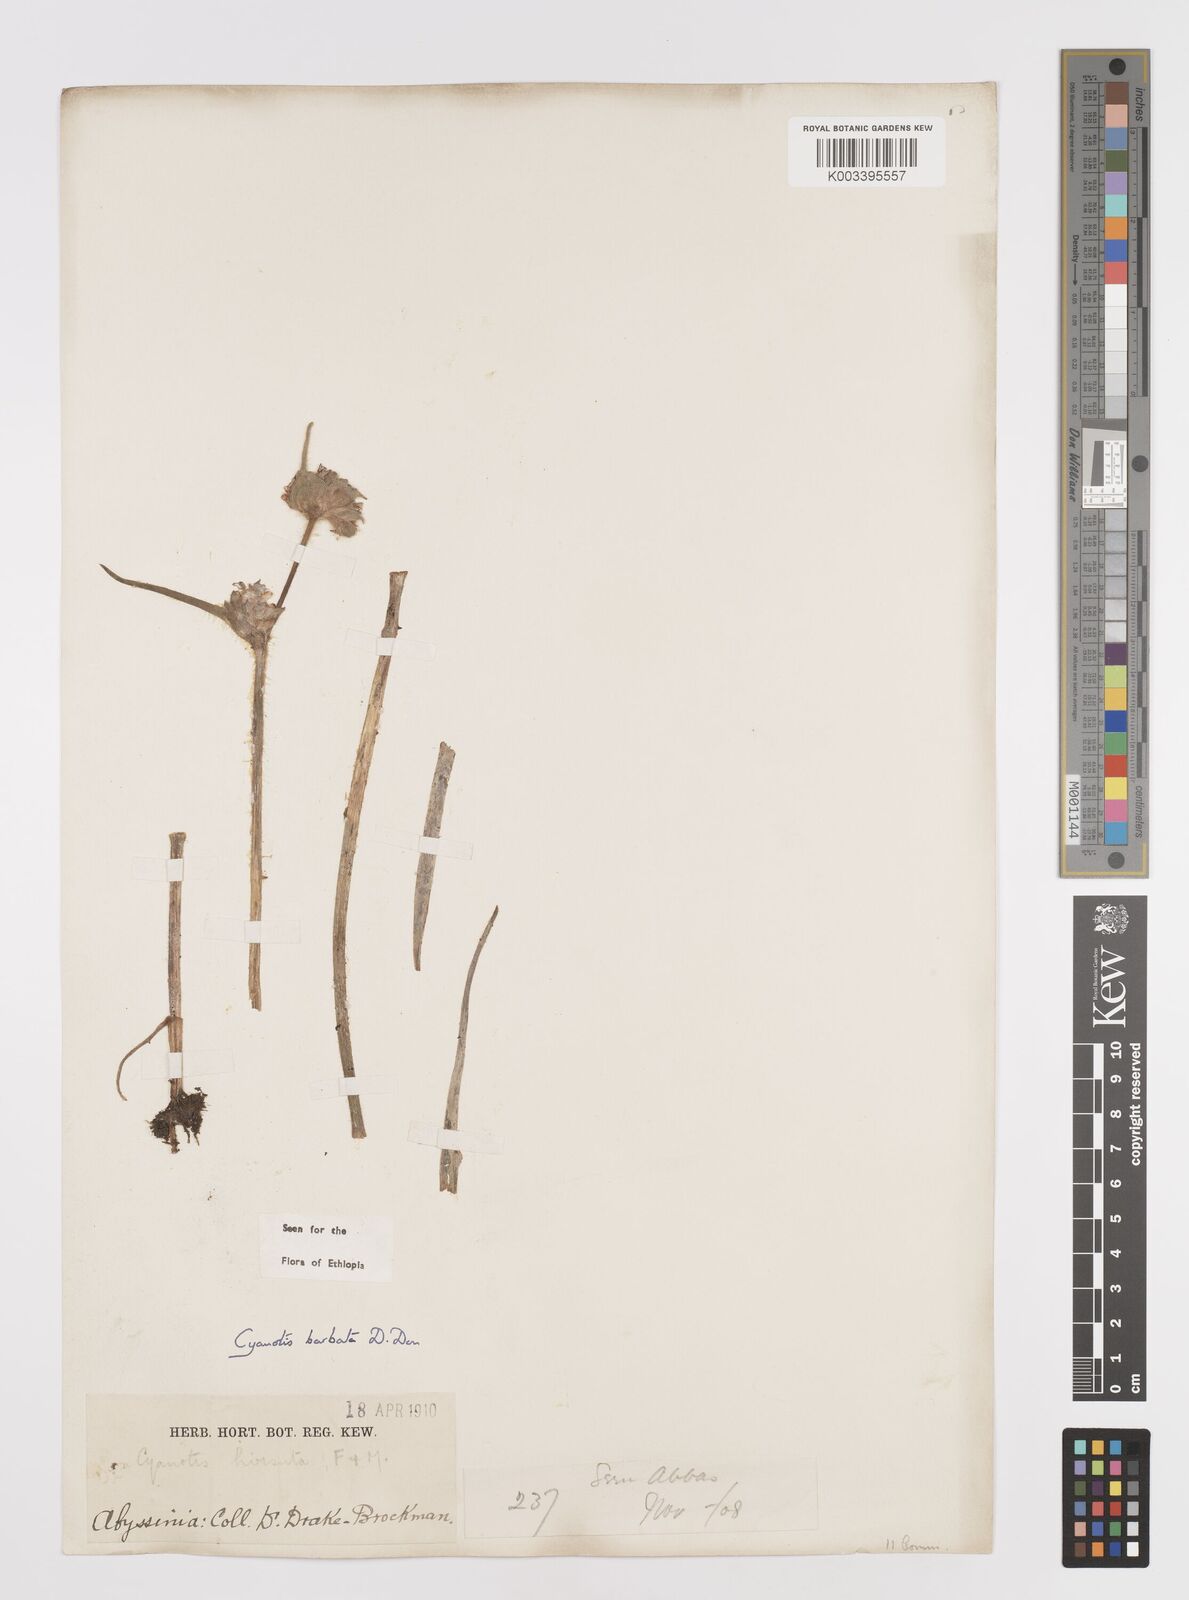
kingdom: Plantae
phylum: Tracheophyta
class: Liliopsida
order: Commelinales
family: Commelinaceae
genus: Cyanotis
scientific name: Cyanotis vaga
